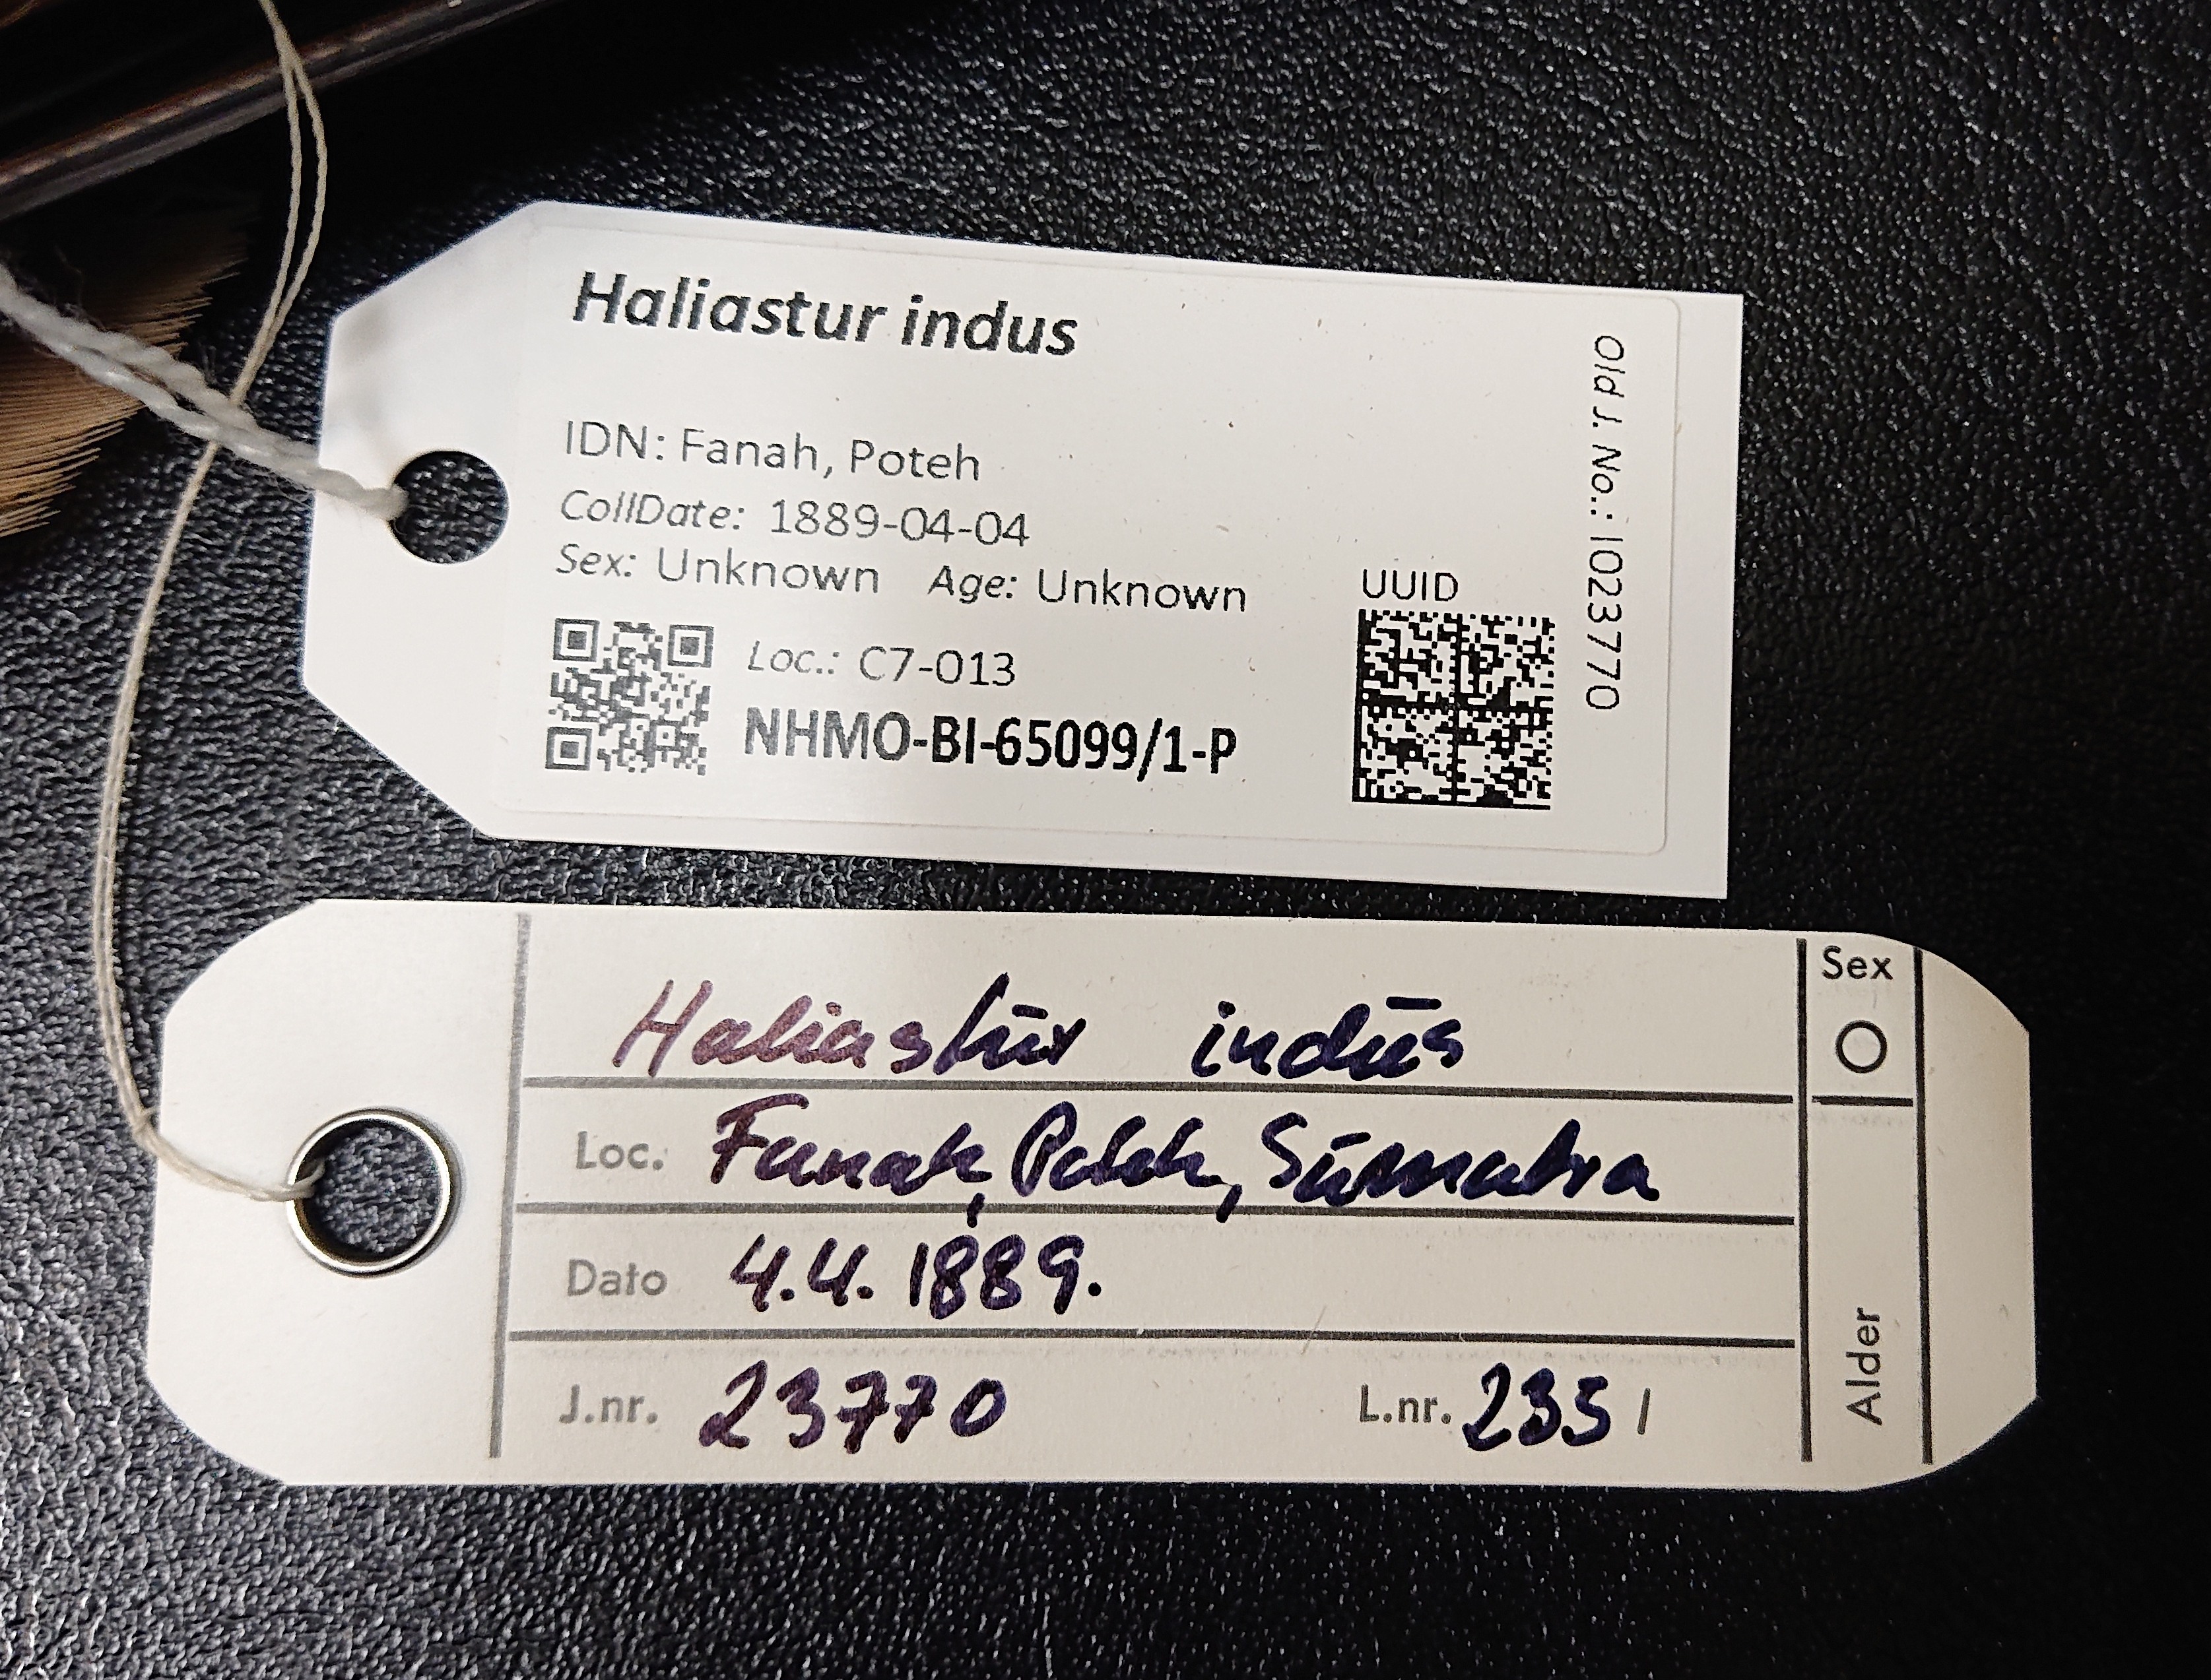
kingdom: Animalia
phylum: Chordata
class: Aves
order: Accipitriformes
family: Accipitridae
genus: Haliastur
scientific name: Haliastur indus
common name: Brahminy kite
